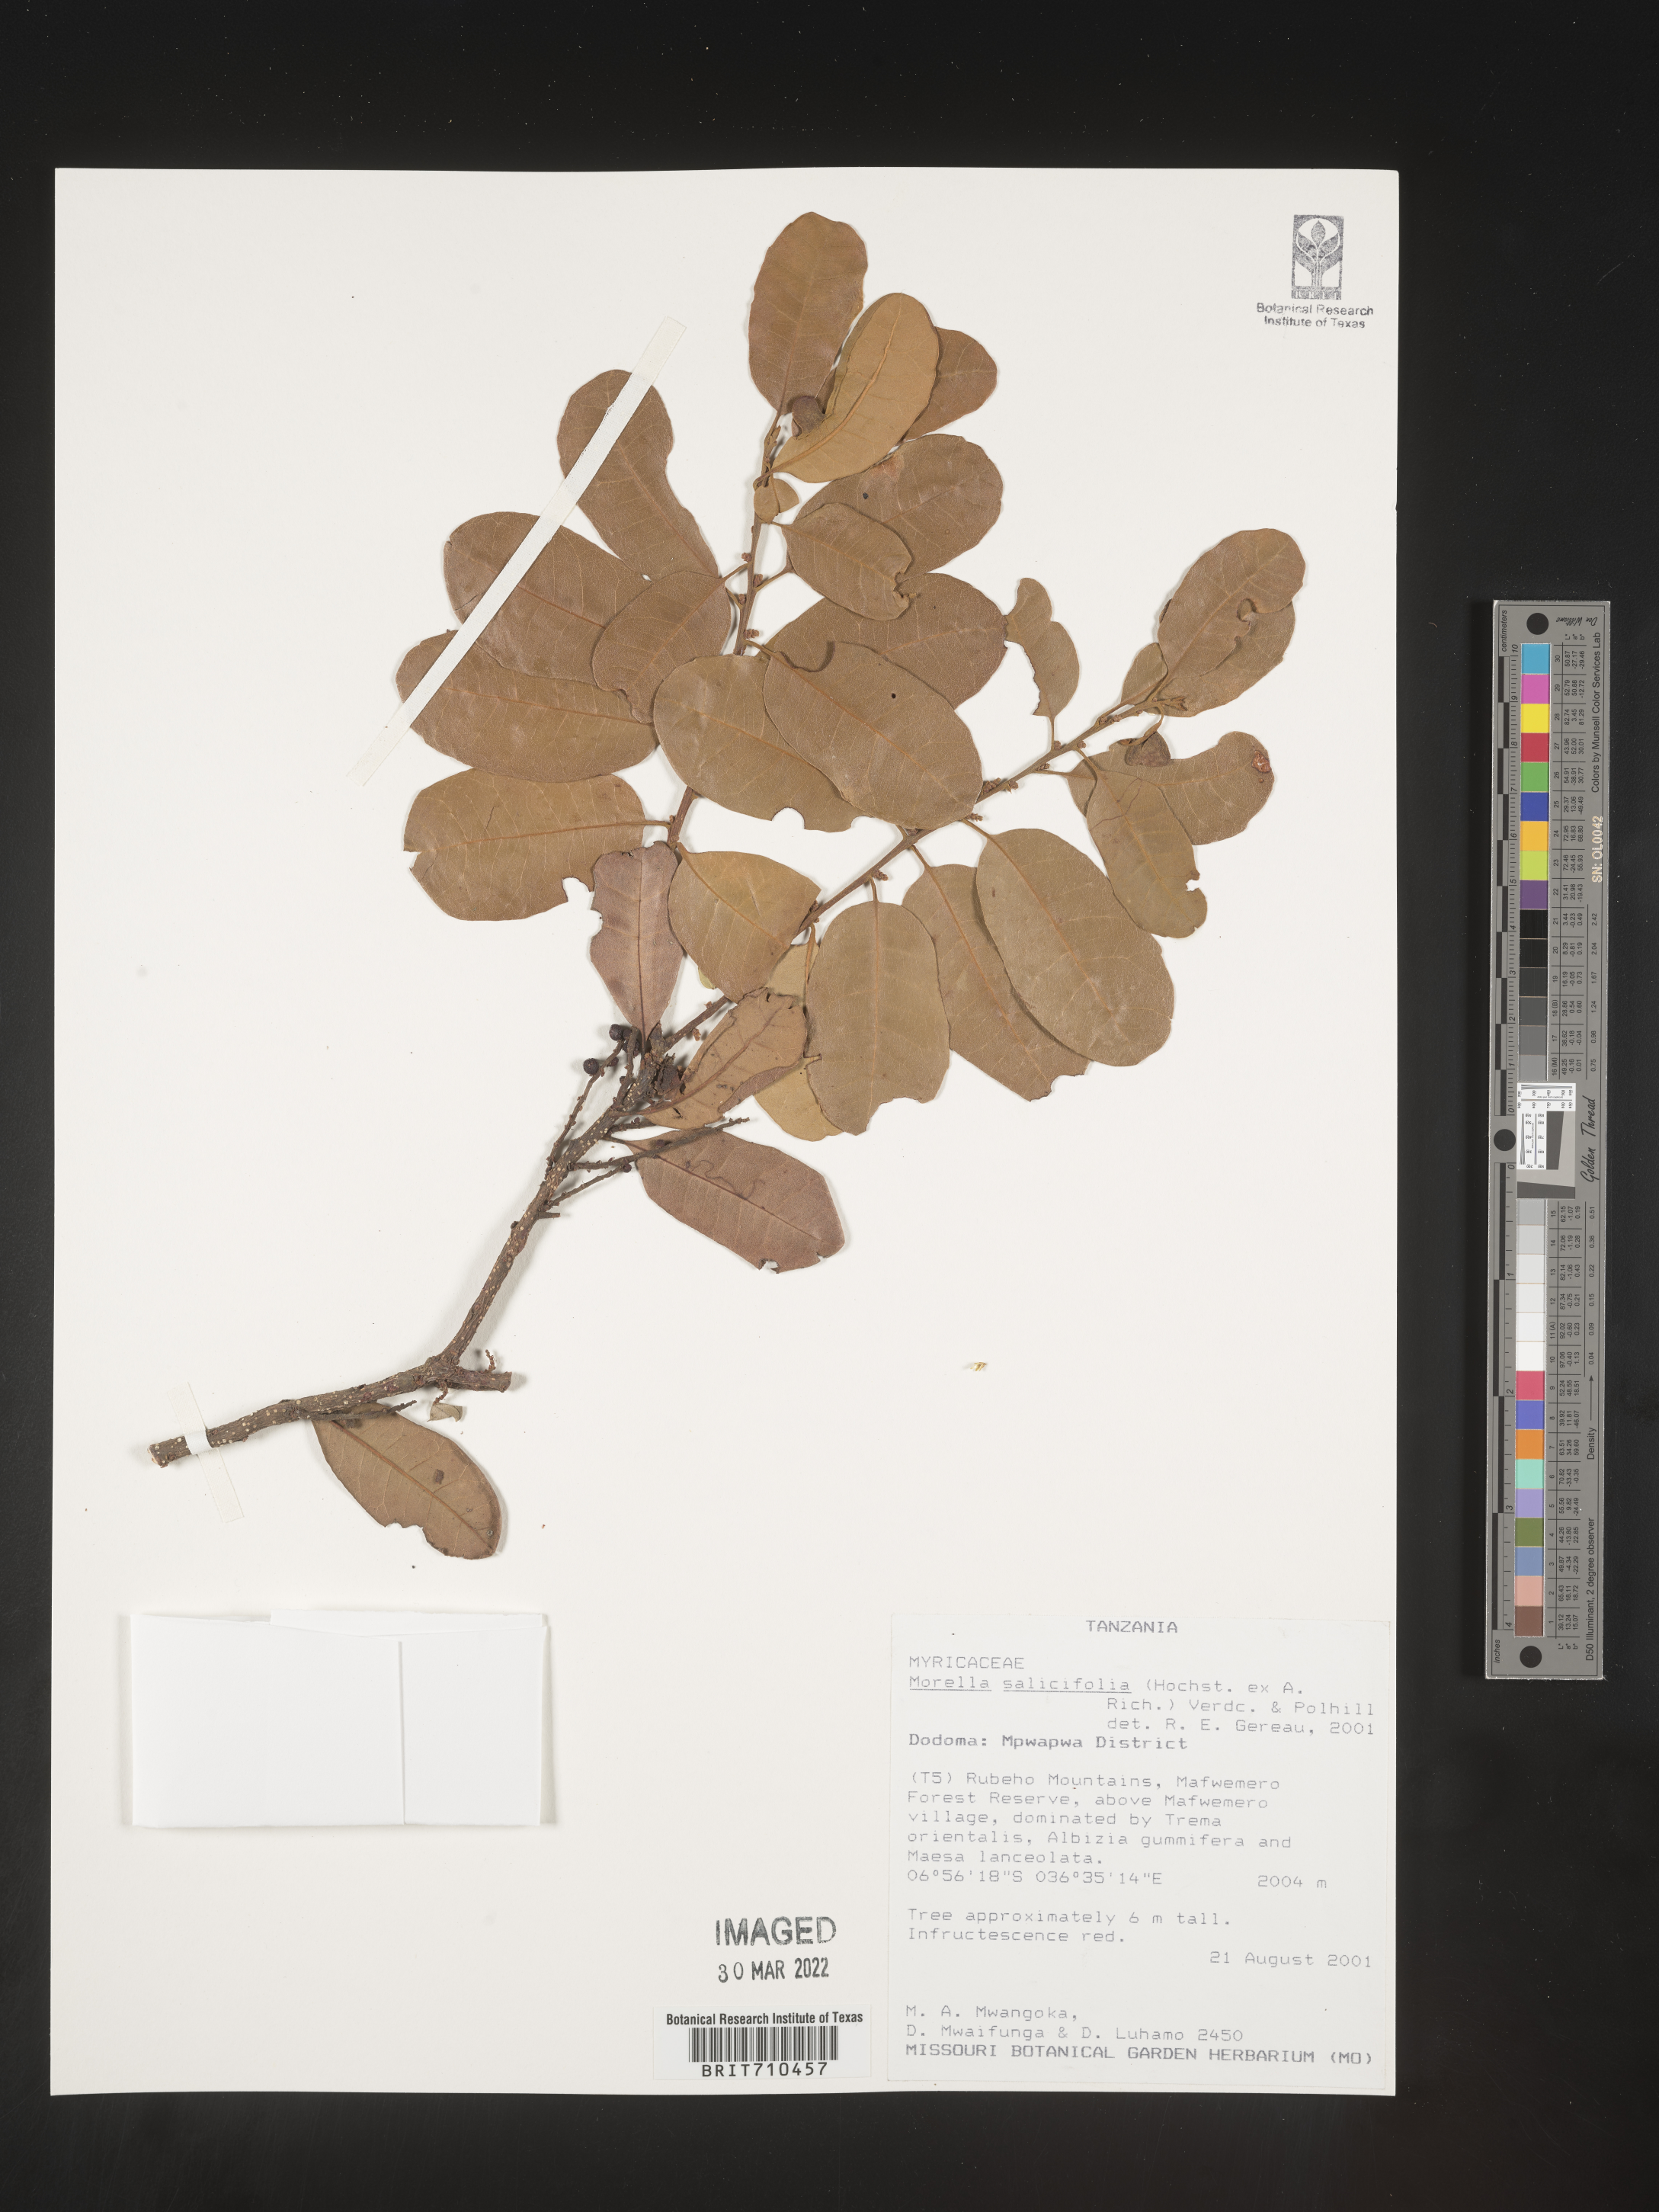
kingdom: Plantae
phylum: Tracheophyta
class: Magnoliopsida
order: Fagales
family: Myricaceae
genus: Morella
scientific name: Morella
